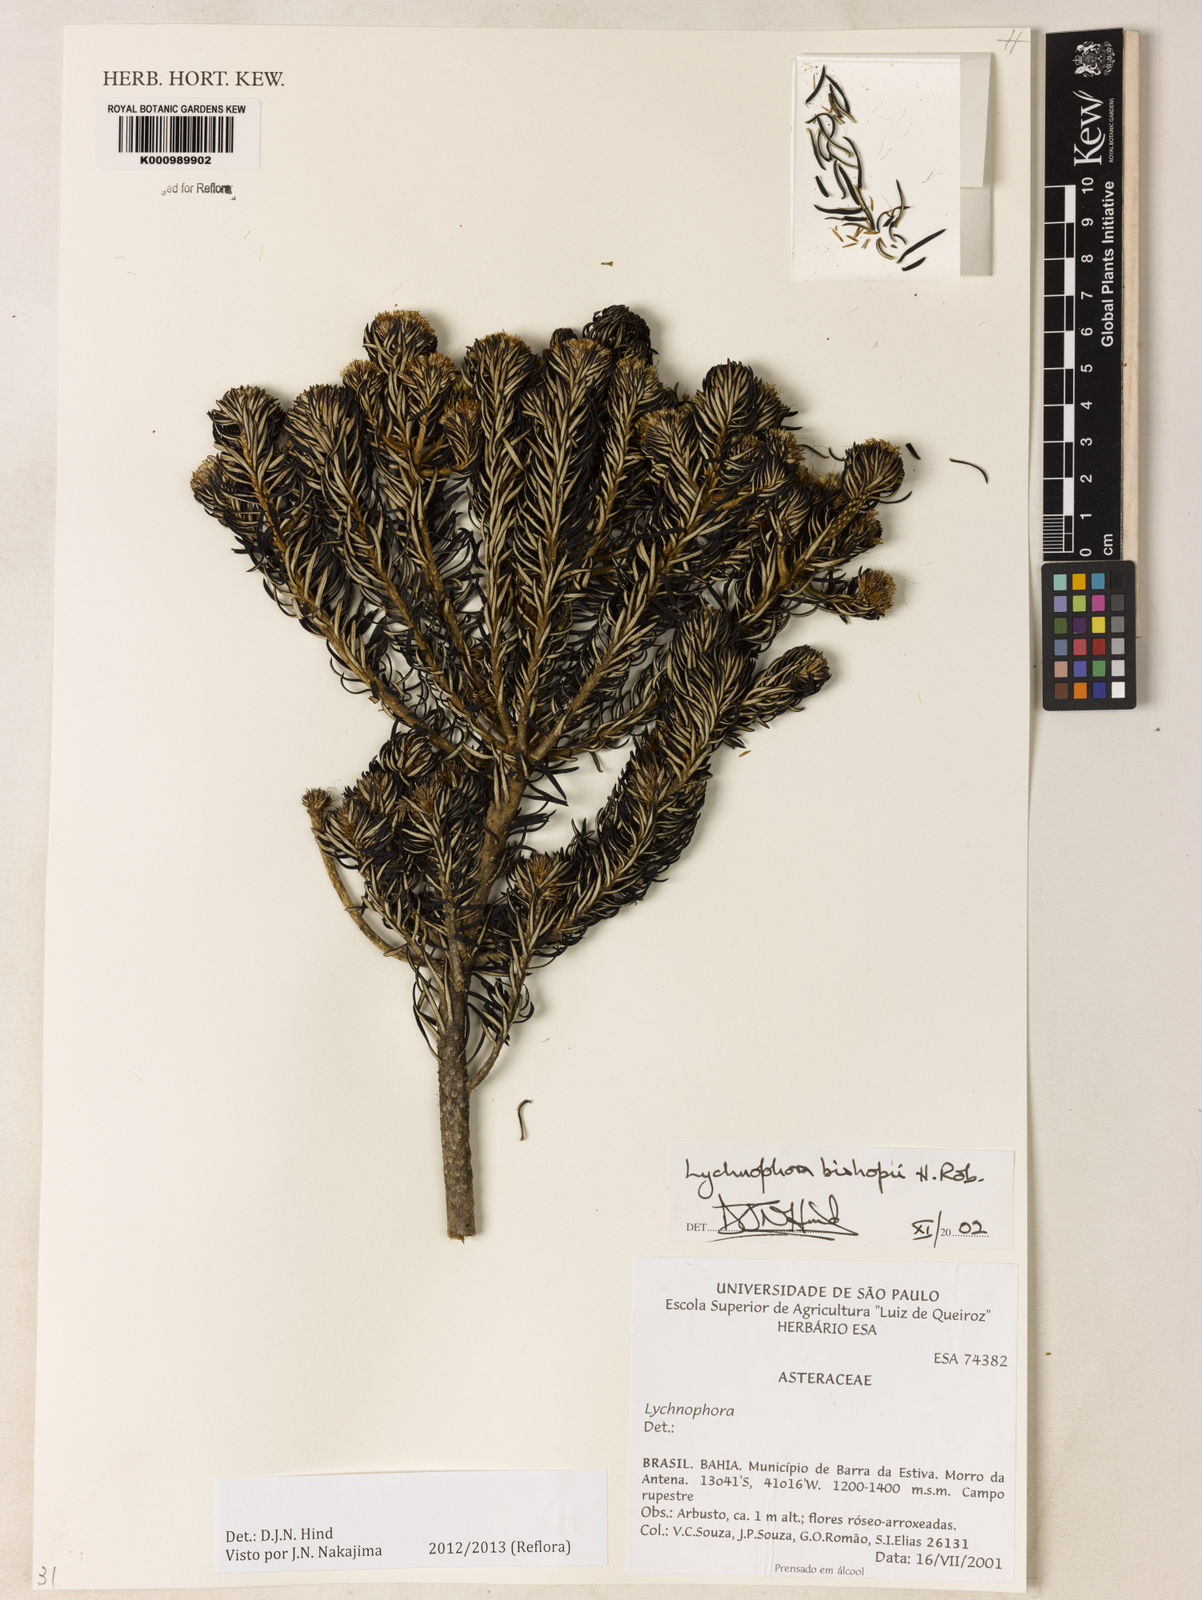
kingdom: Plantae
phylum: Tracheophyta
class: Magnoliopsida
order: Asterales
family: Asteraceae
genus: Lychnophorella
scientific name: Lychnophorella bishopii
